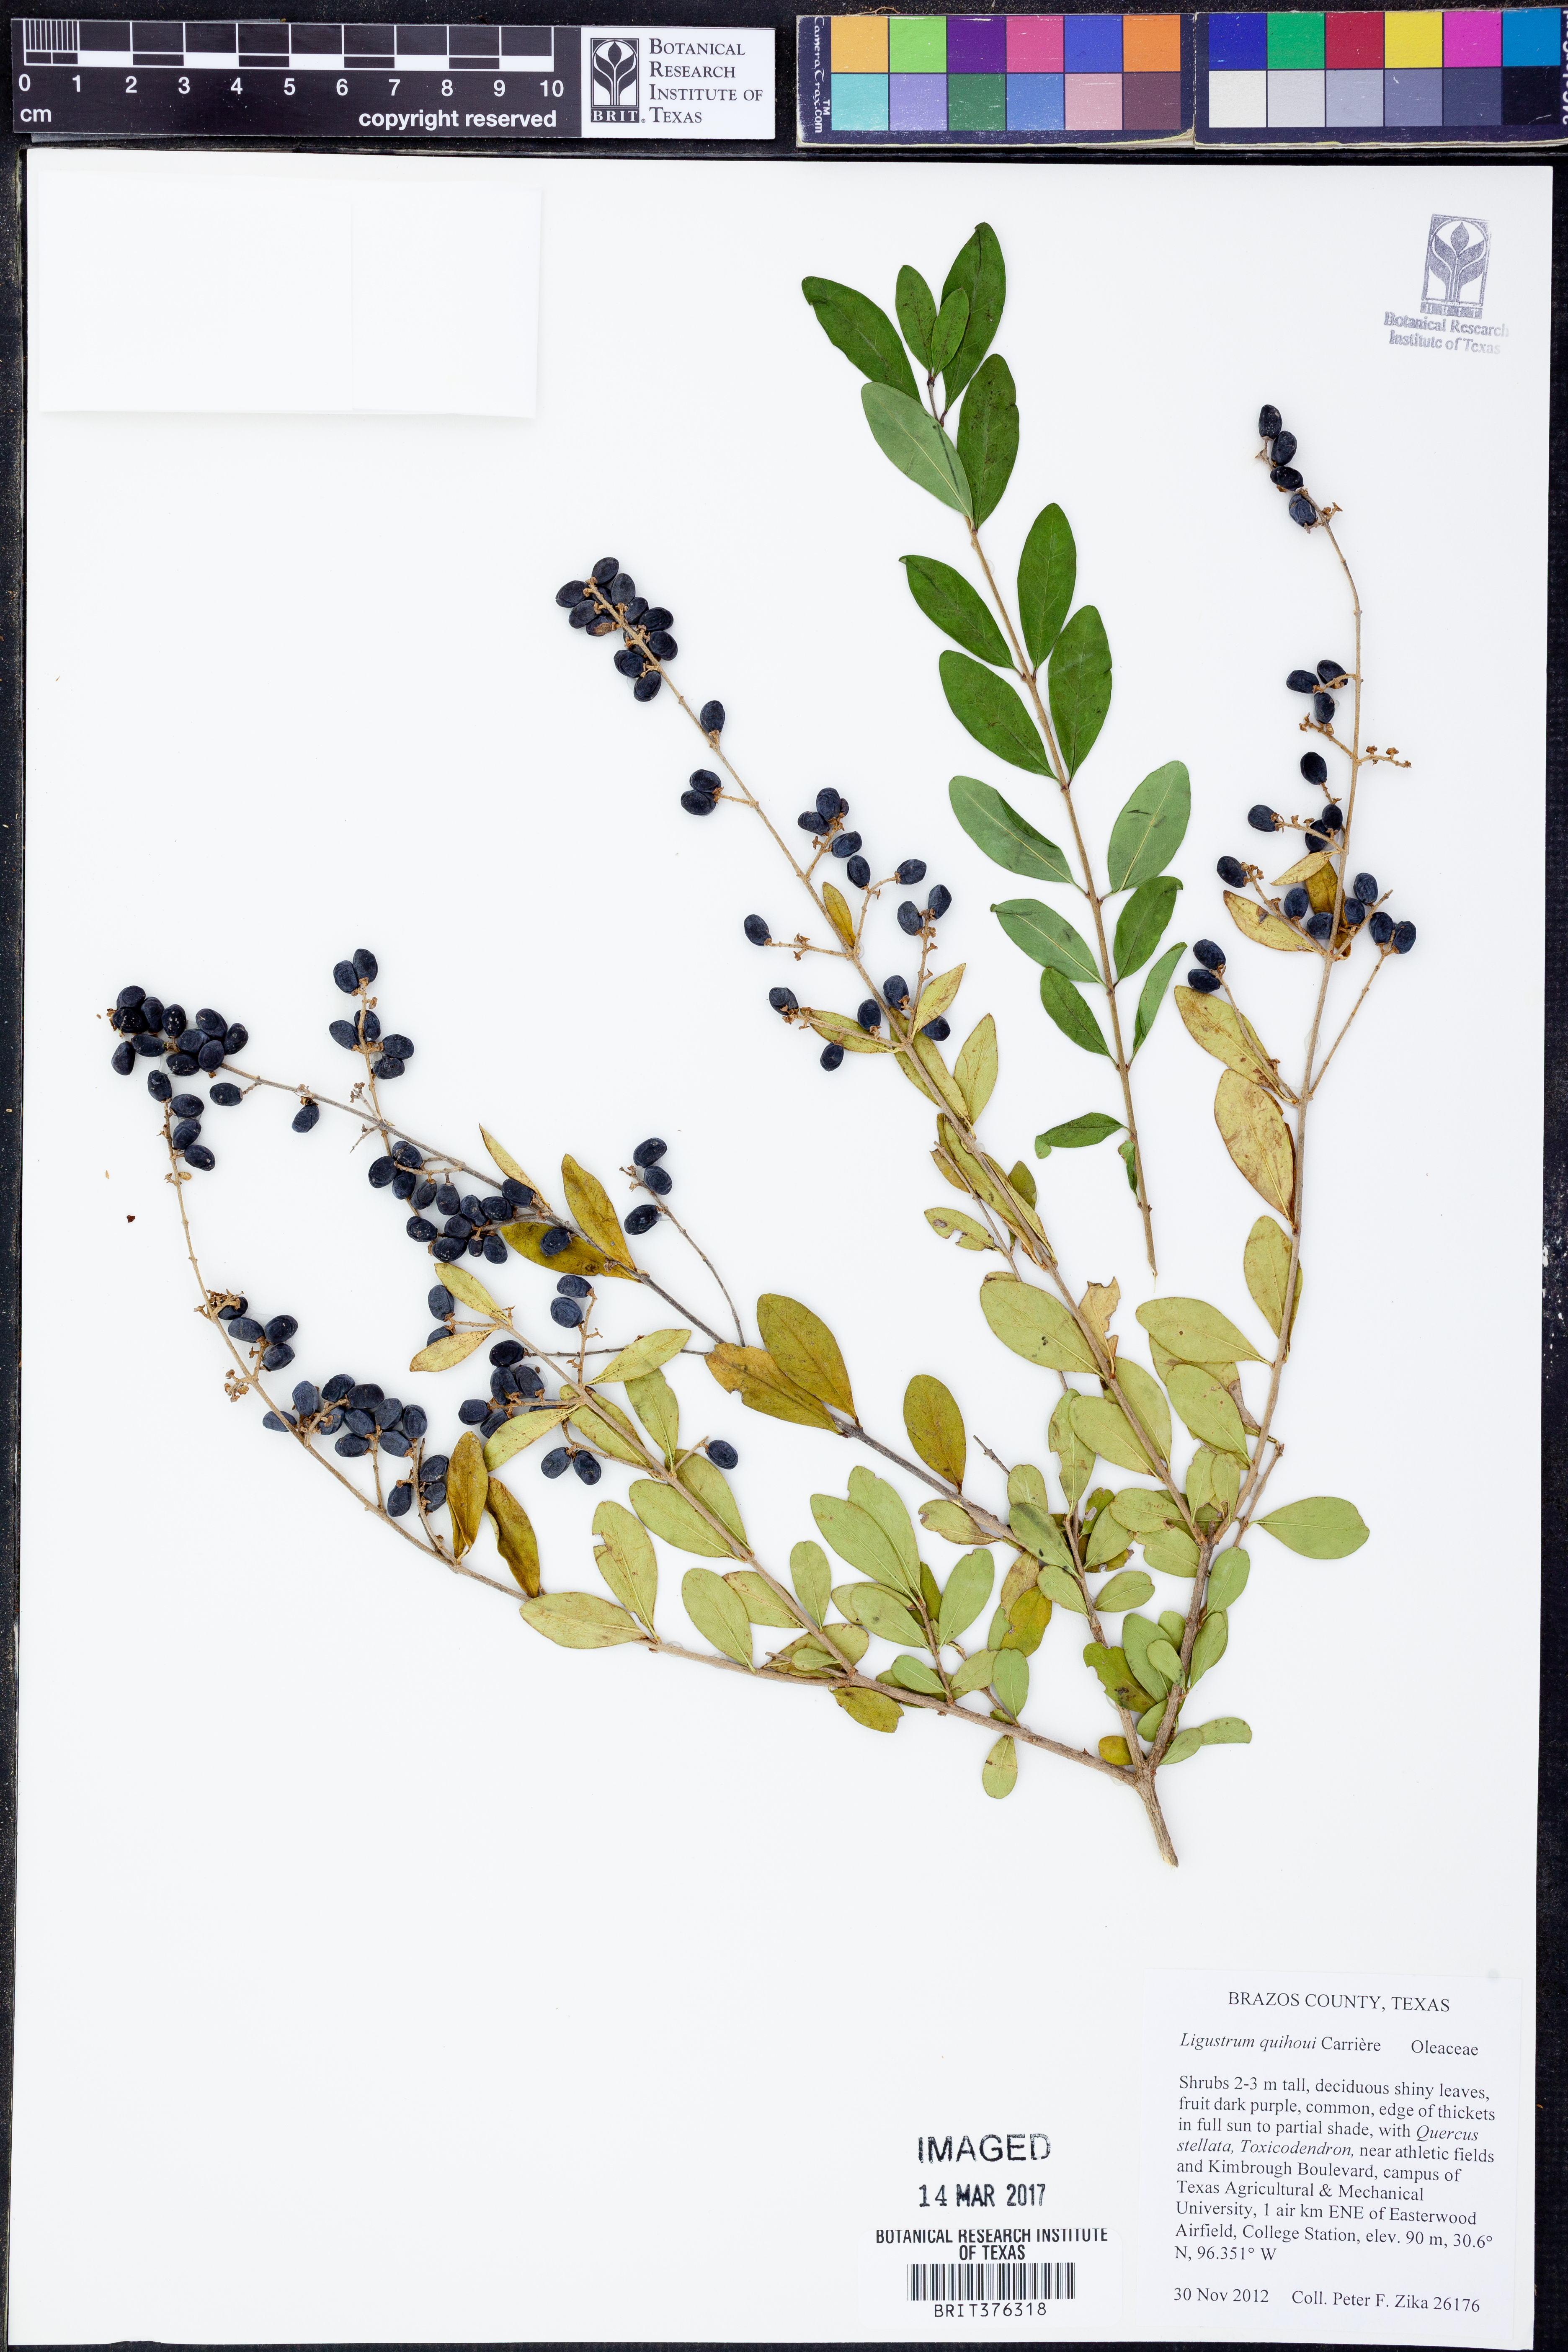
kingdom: Plantae
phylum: Tracheophyta
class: Magnoliopsida
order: Lamiales
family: Oleaceae
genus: Ligustrum
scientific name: Ligustrum quihoui
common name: Waxyleaf privet
